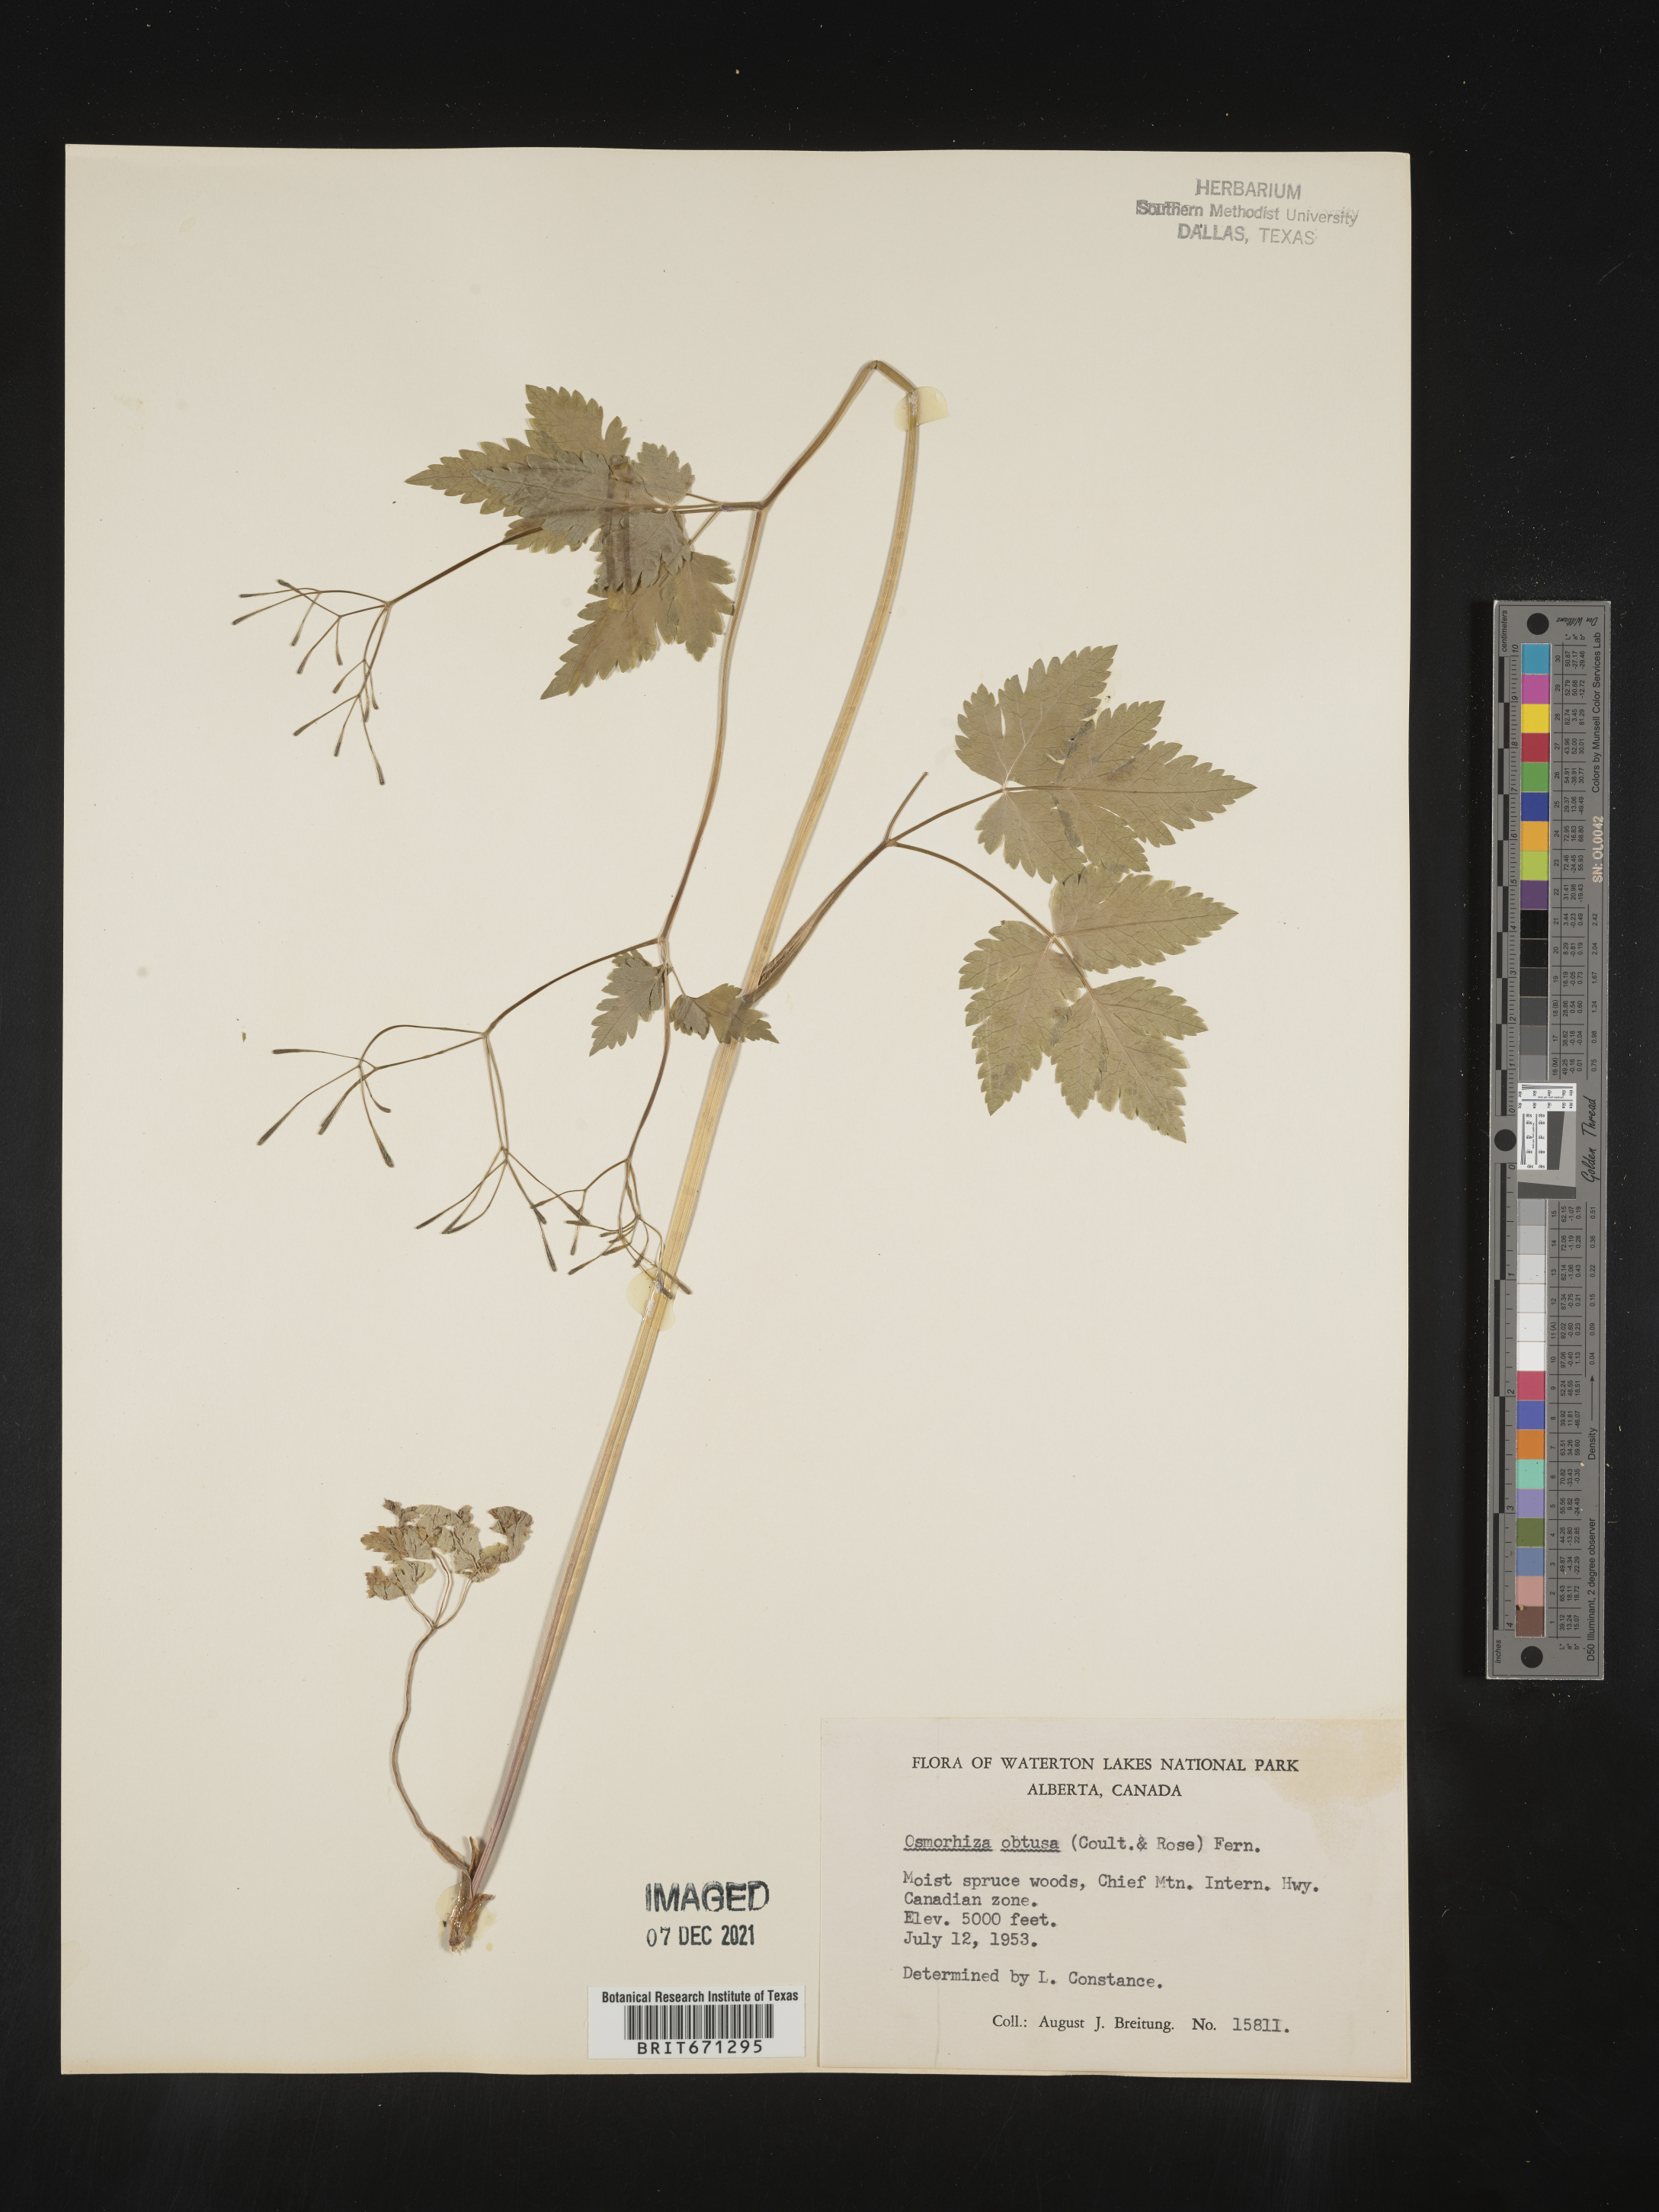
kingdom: Plantae
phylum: Tracheophyta
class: Magnoliopsida
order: Apiales
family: Apiaceae
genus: Osmorhiza
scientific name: Osmorhiza depauperata
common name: Blunt sweet cicely
